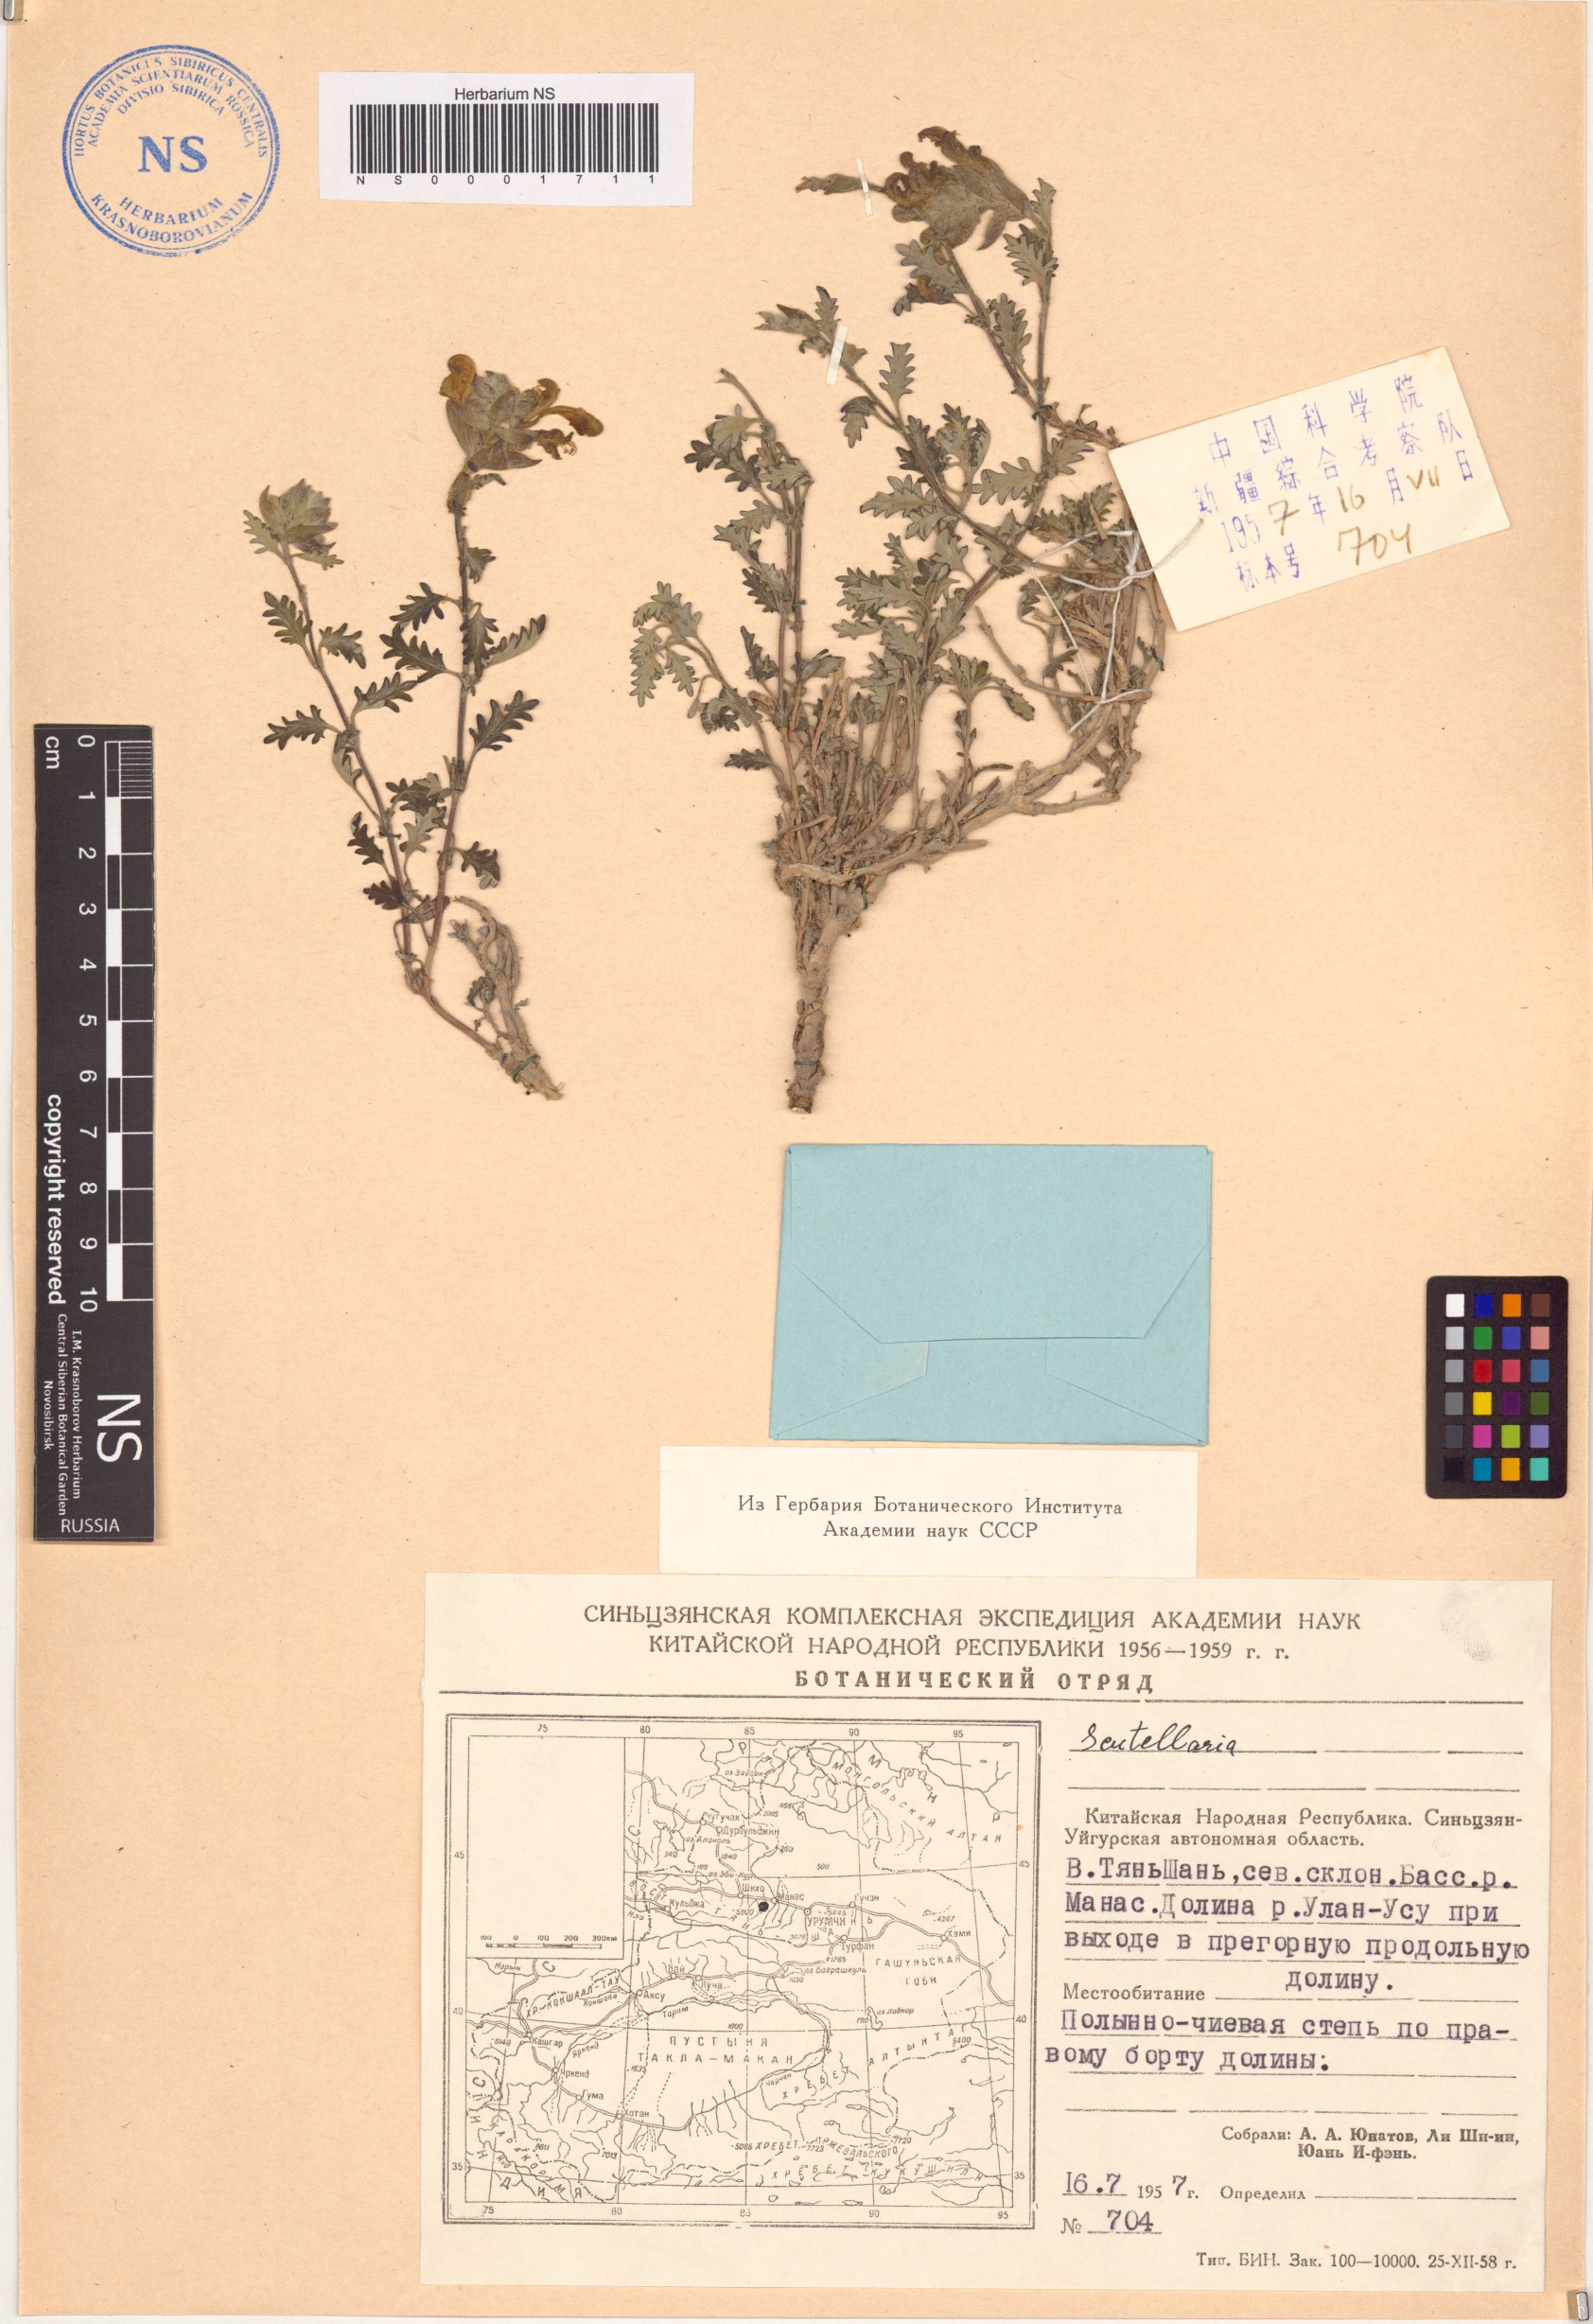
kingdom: Plantae
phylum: Tracheophyta
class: Magnoliopsida
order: Lamiales
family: Lamiaceae
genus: Scutellaria
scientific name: Scutellaria
